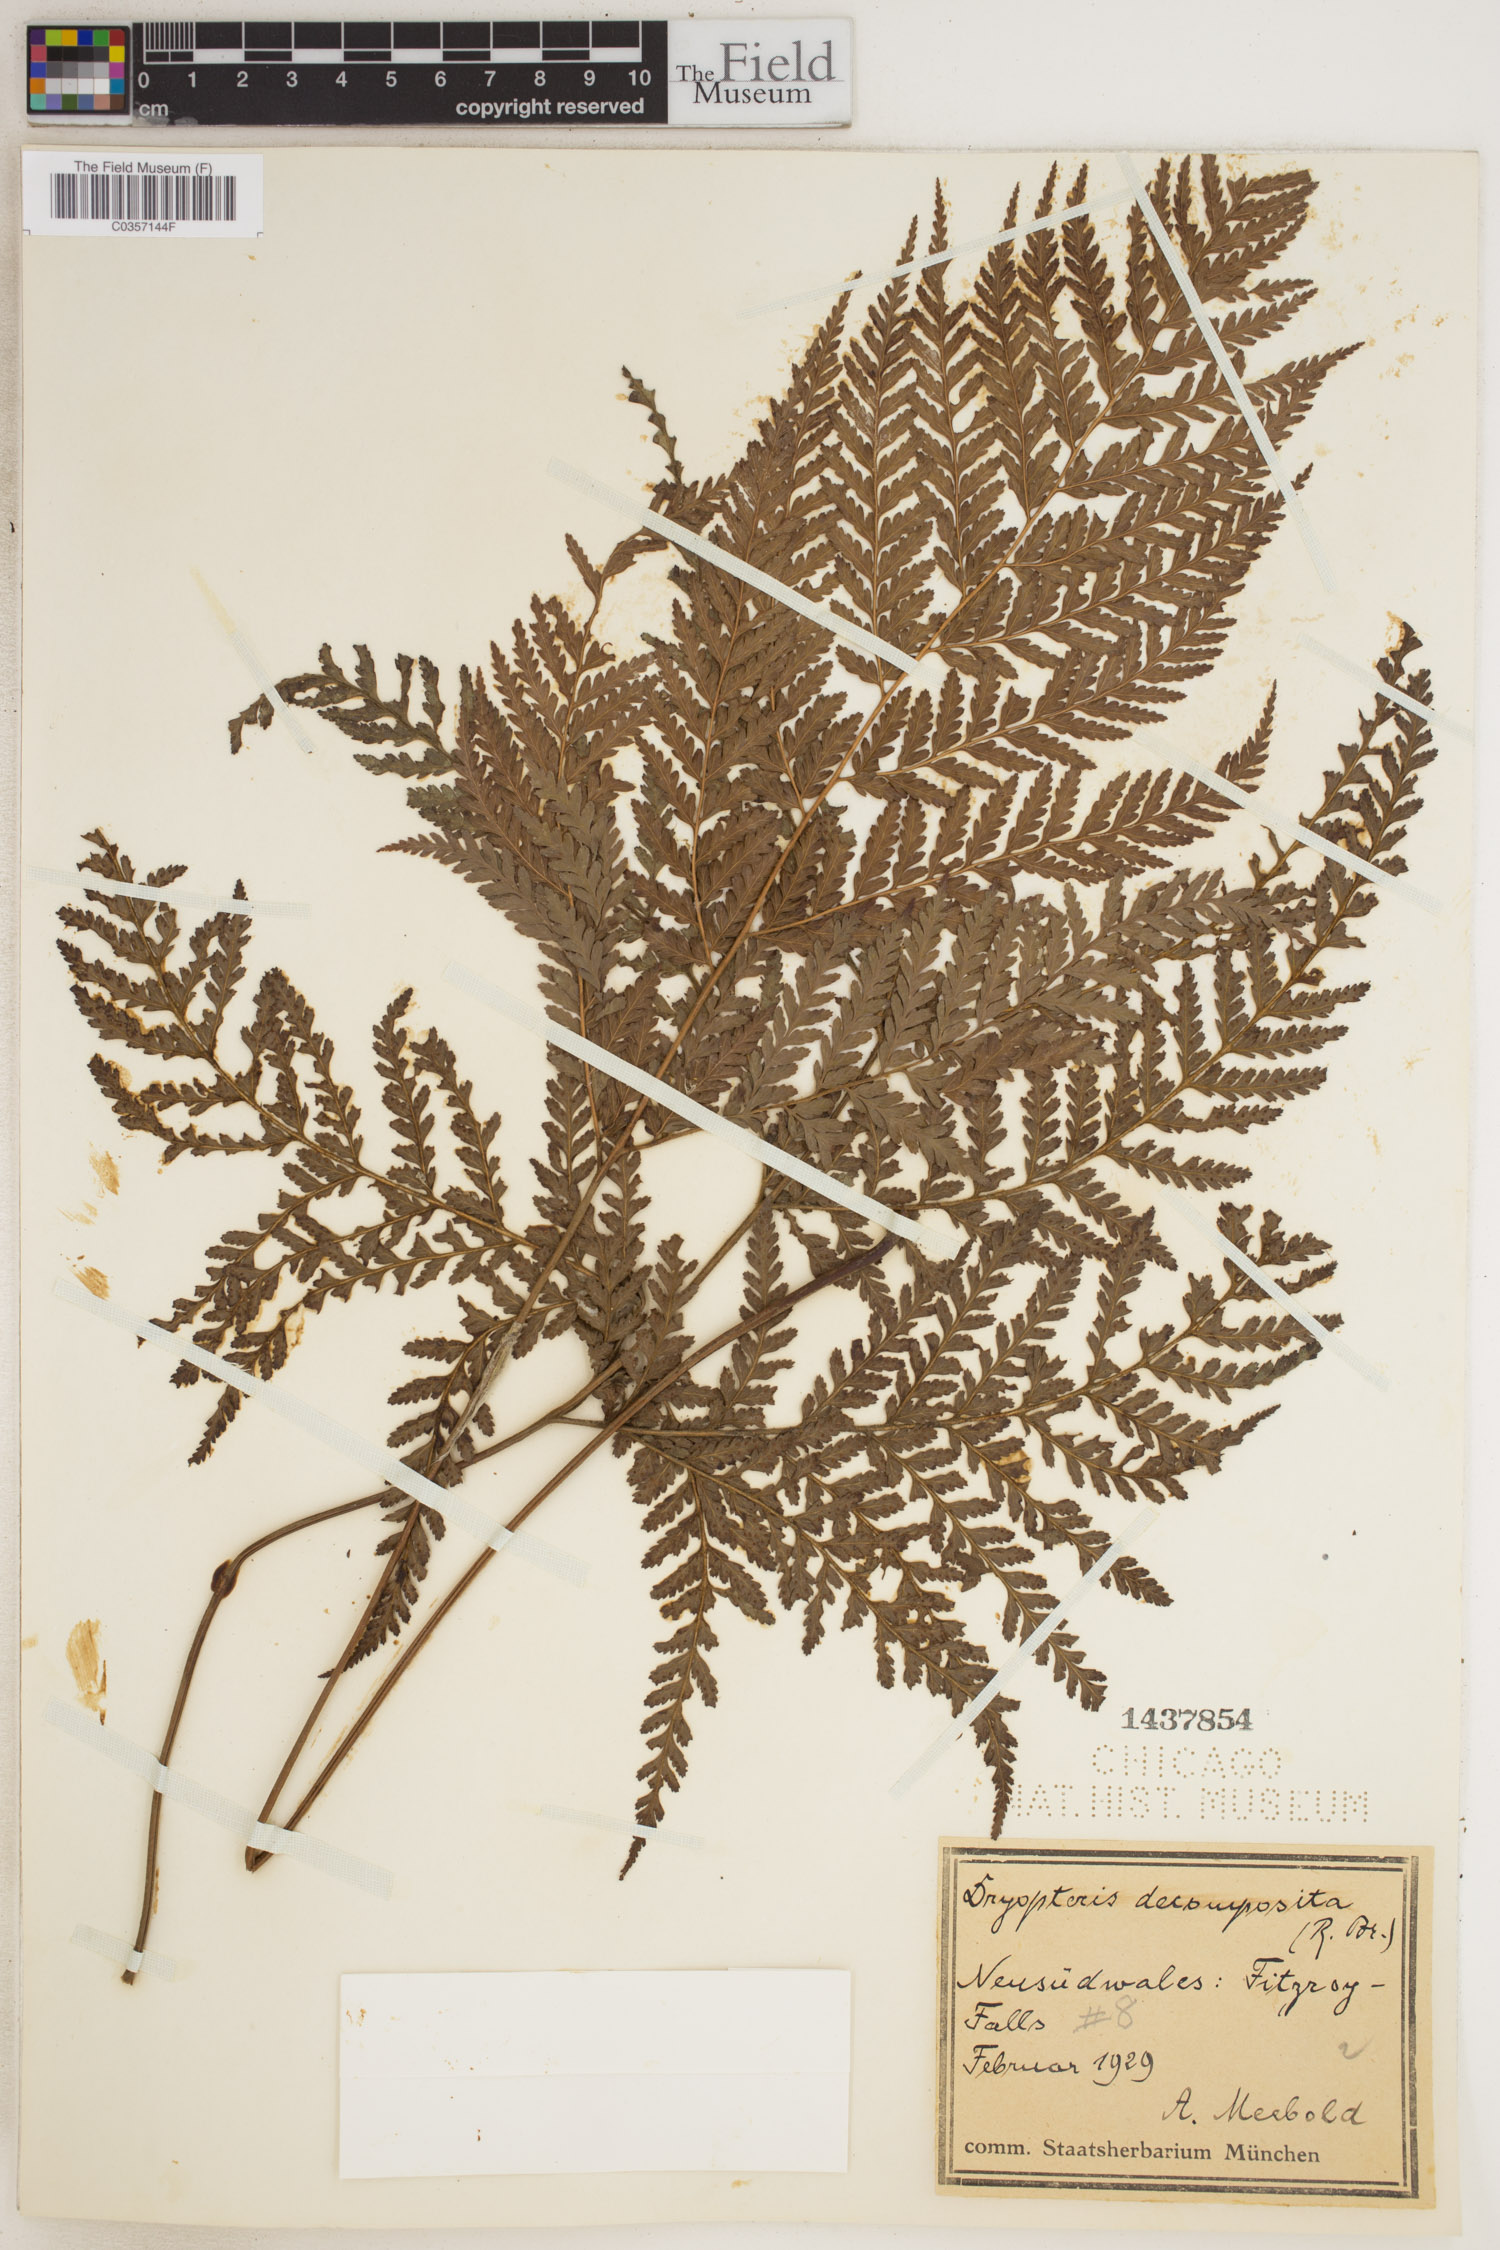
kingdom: Plantae
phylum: Tracheophyta
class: Polypodiopsida
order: Polypodiales
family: Dryopteridaceae
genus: Lastreopsis
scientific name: Lastreopsis decomposita
